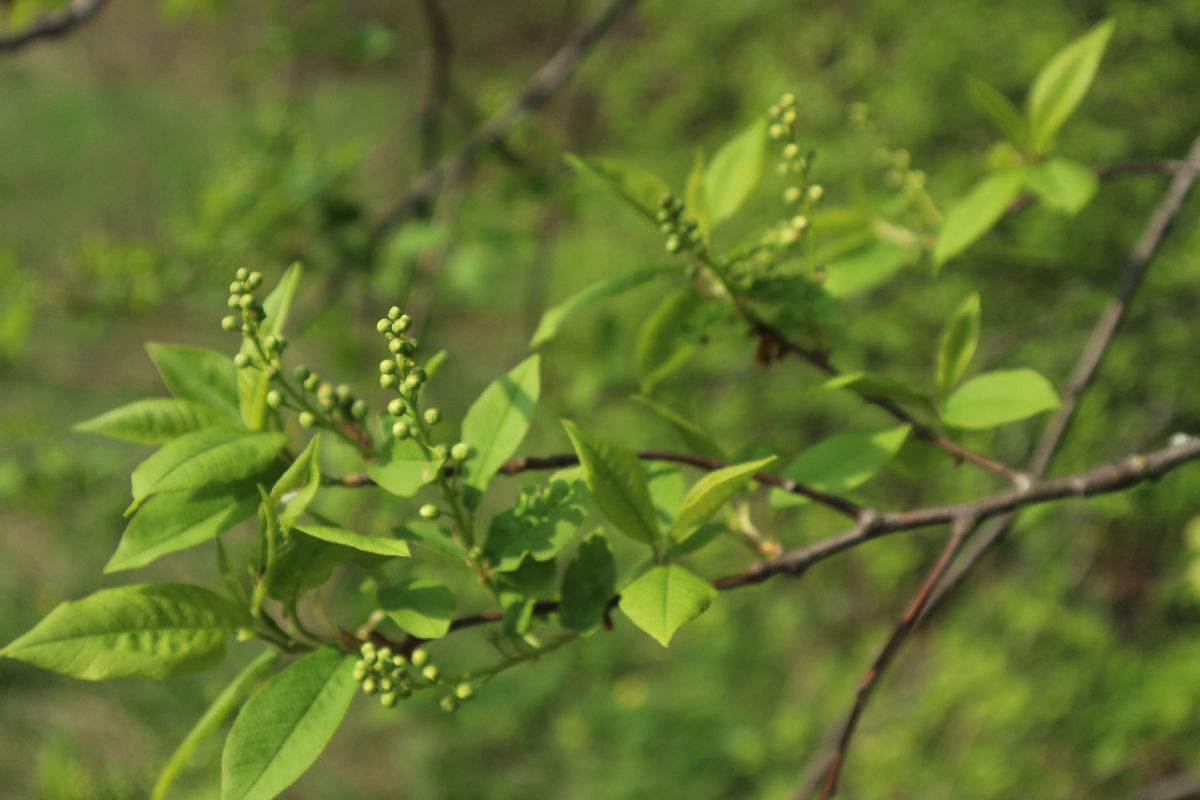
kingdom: Plantae
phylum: Tracheophyta
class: Magnoliopsida
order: Rosales
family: Rosaceae
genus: Prunus
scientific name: Prunus padus
